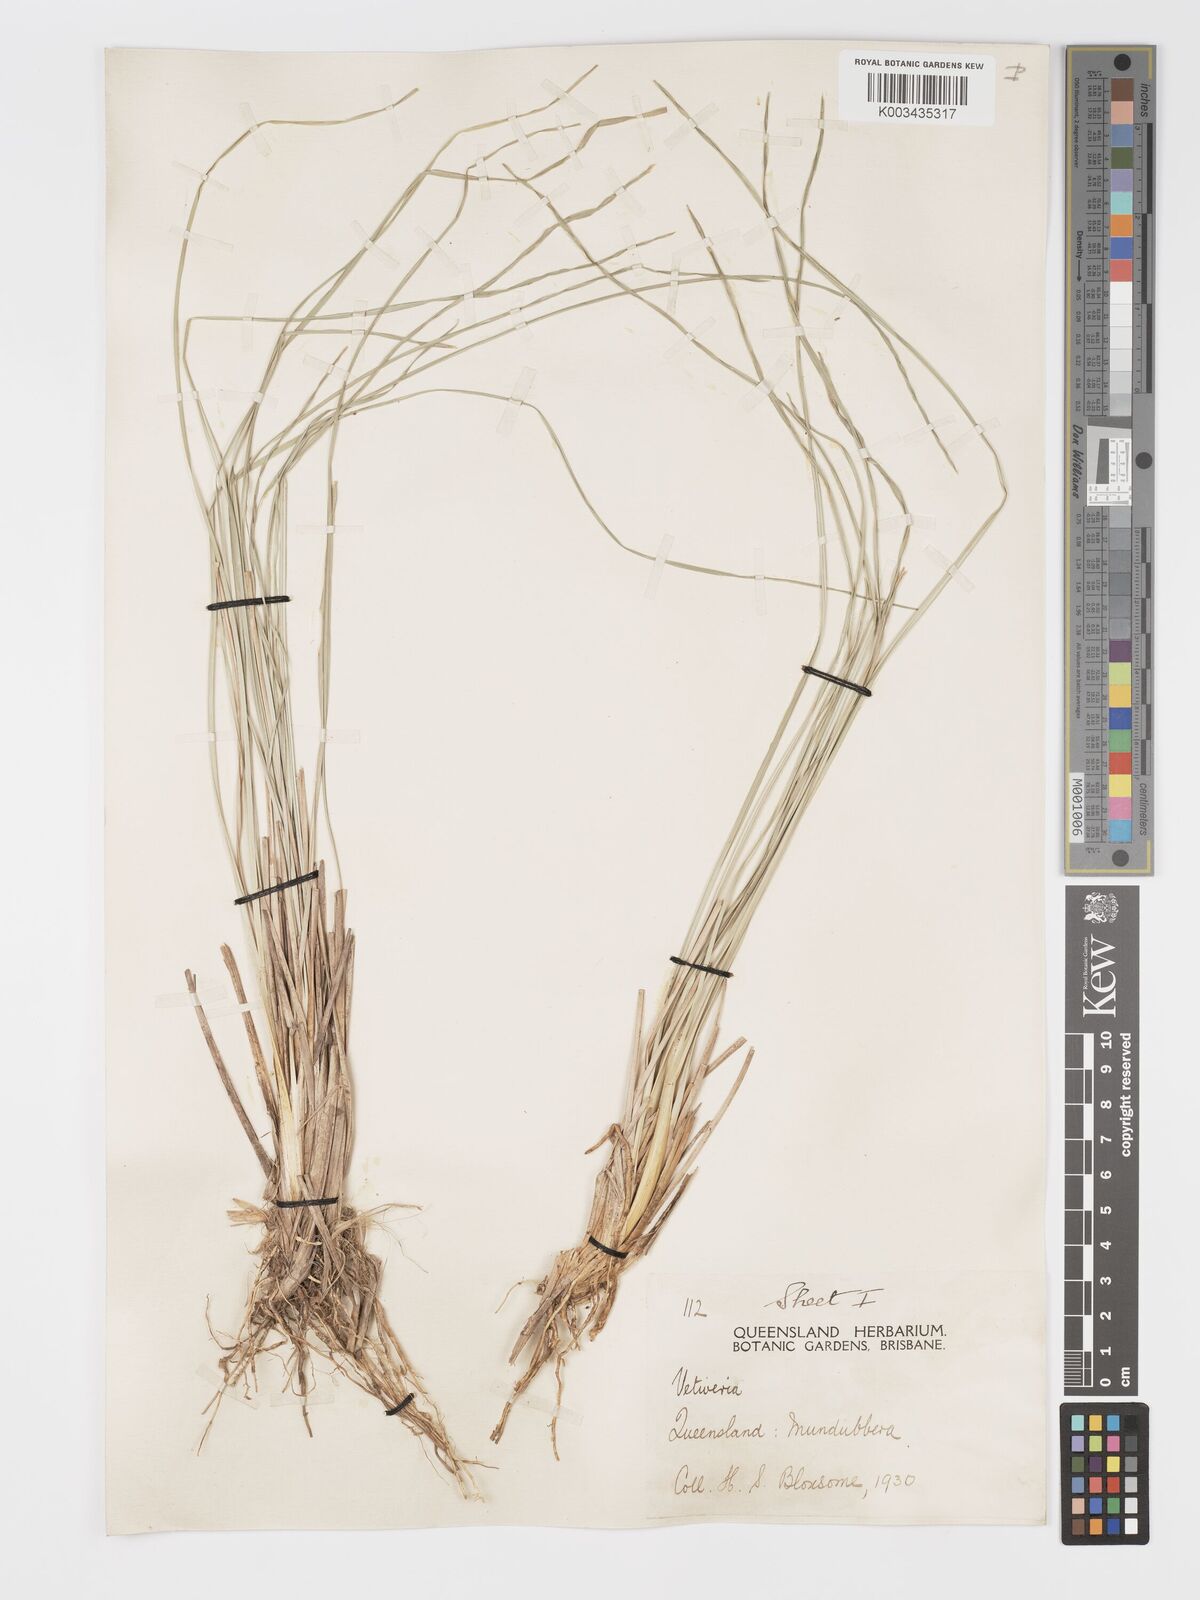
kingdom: Plantae
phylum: Tracheophyta
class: Liliopsida
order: Poales
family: Poaceae
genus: Chrysopogon
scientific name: Chrysopogon filipes
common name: Australian vetiver
